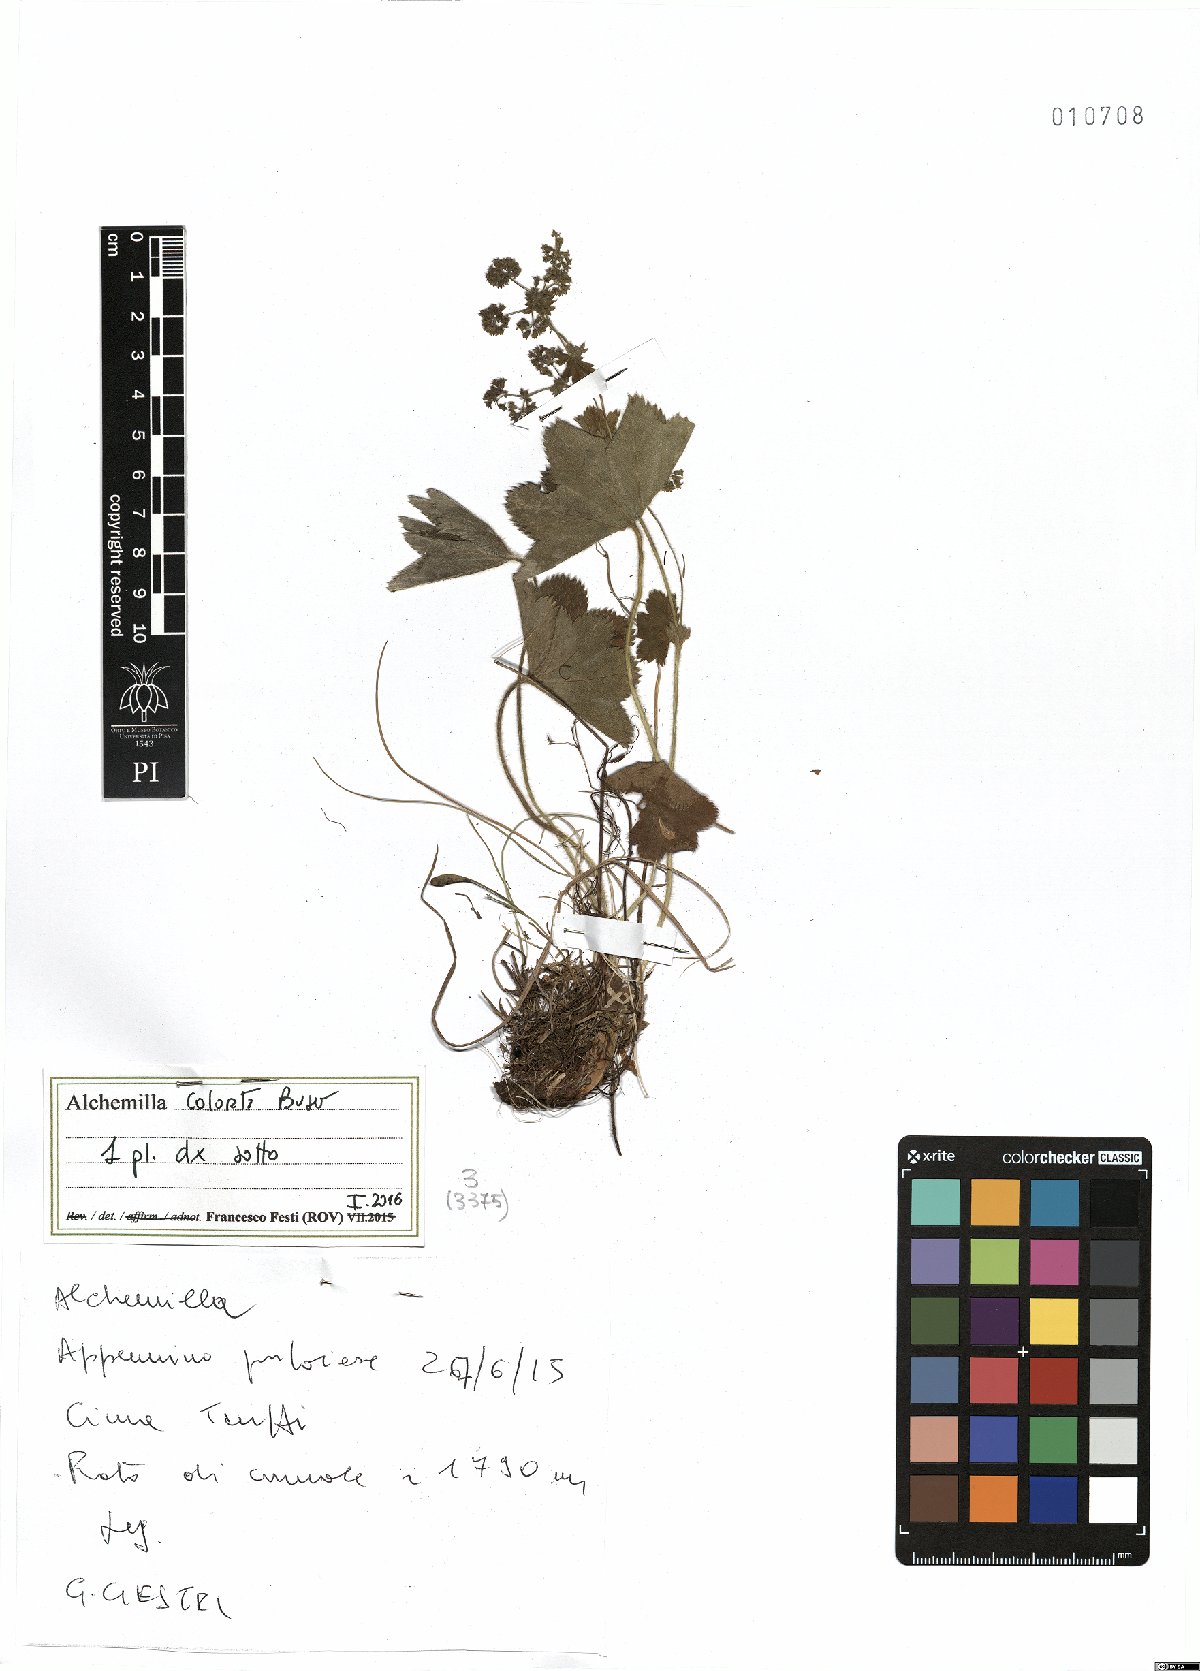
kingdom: Plantae
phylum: Tracheophyta
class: Magnoliopsida
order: Rosales
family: Rosaceae
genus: Alchemilla
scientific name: Alchemilla colorata
